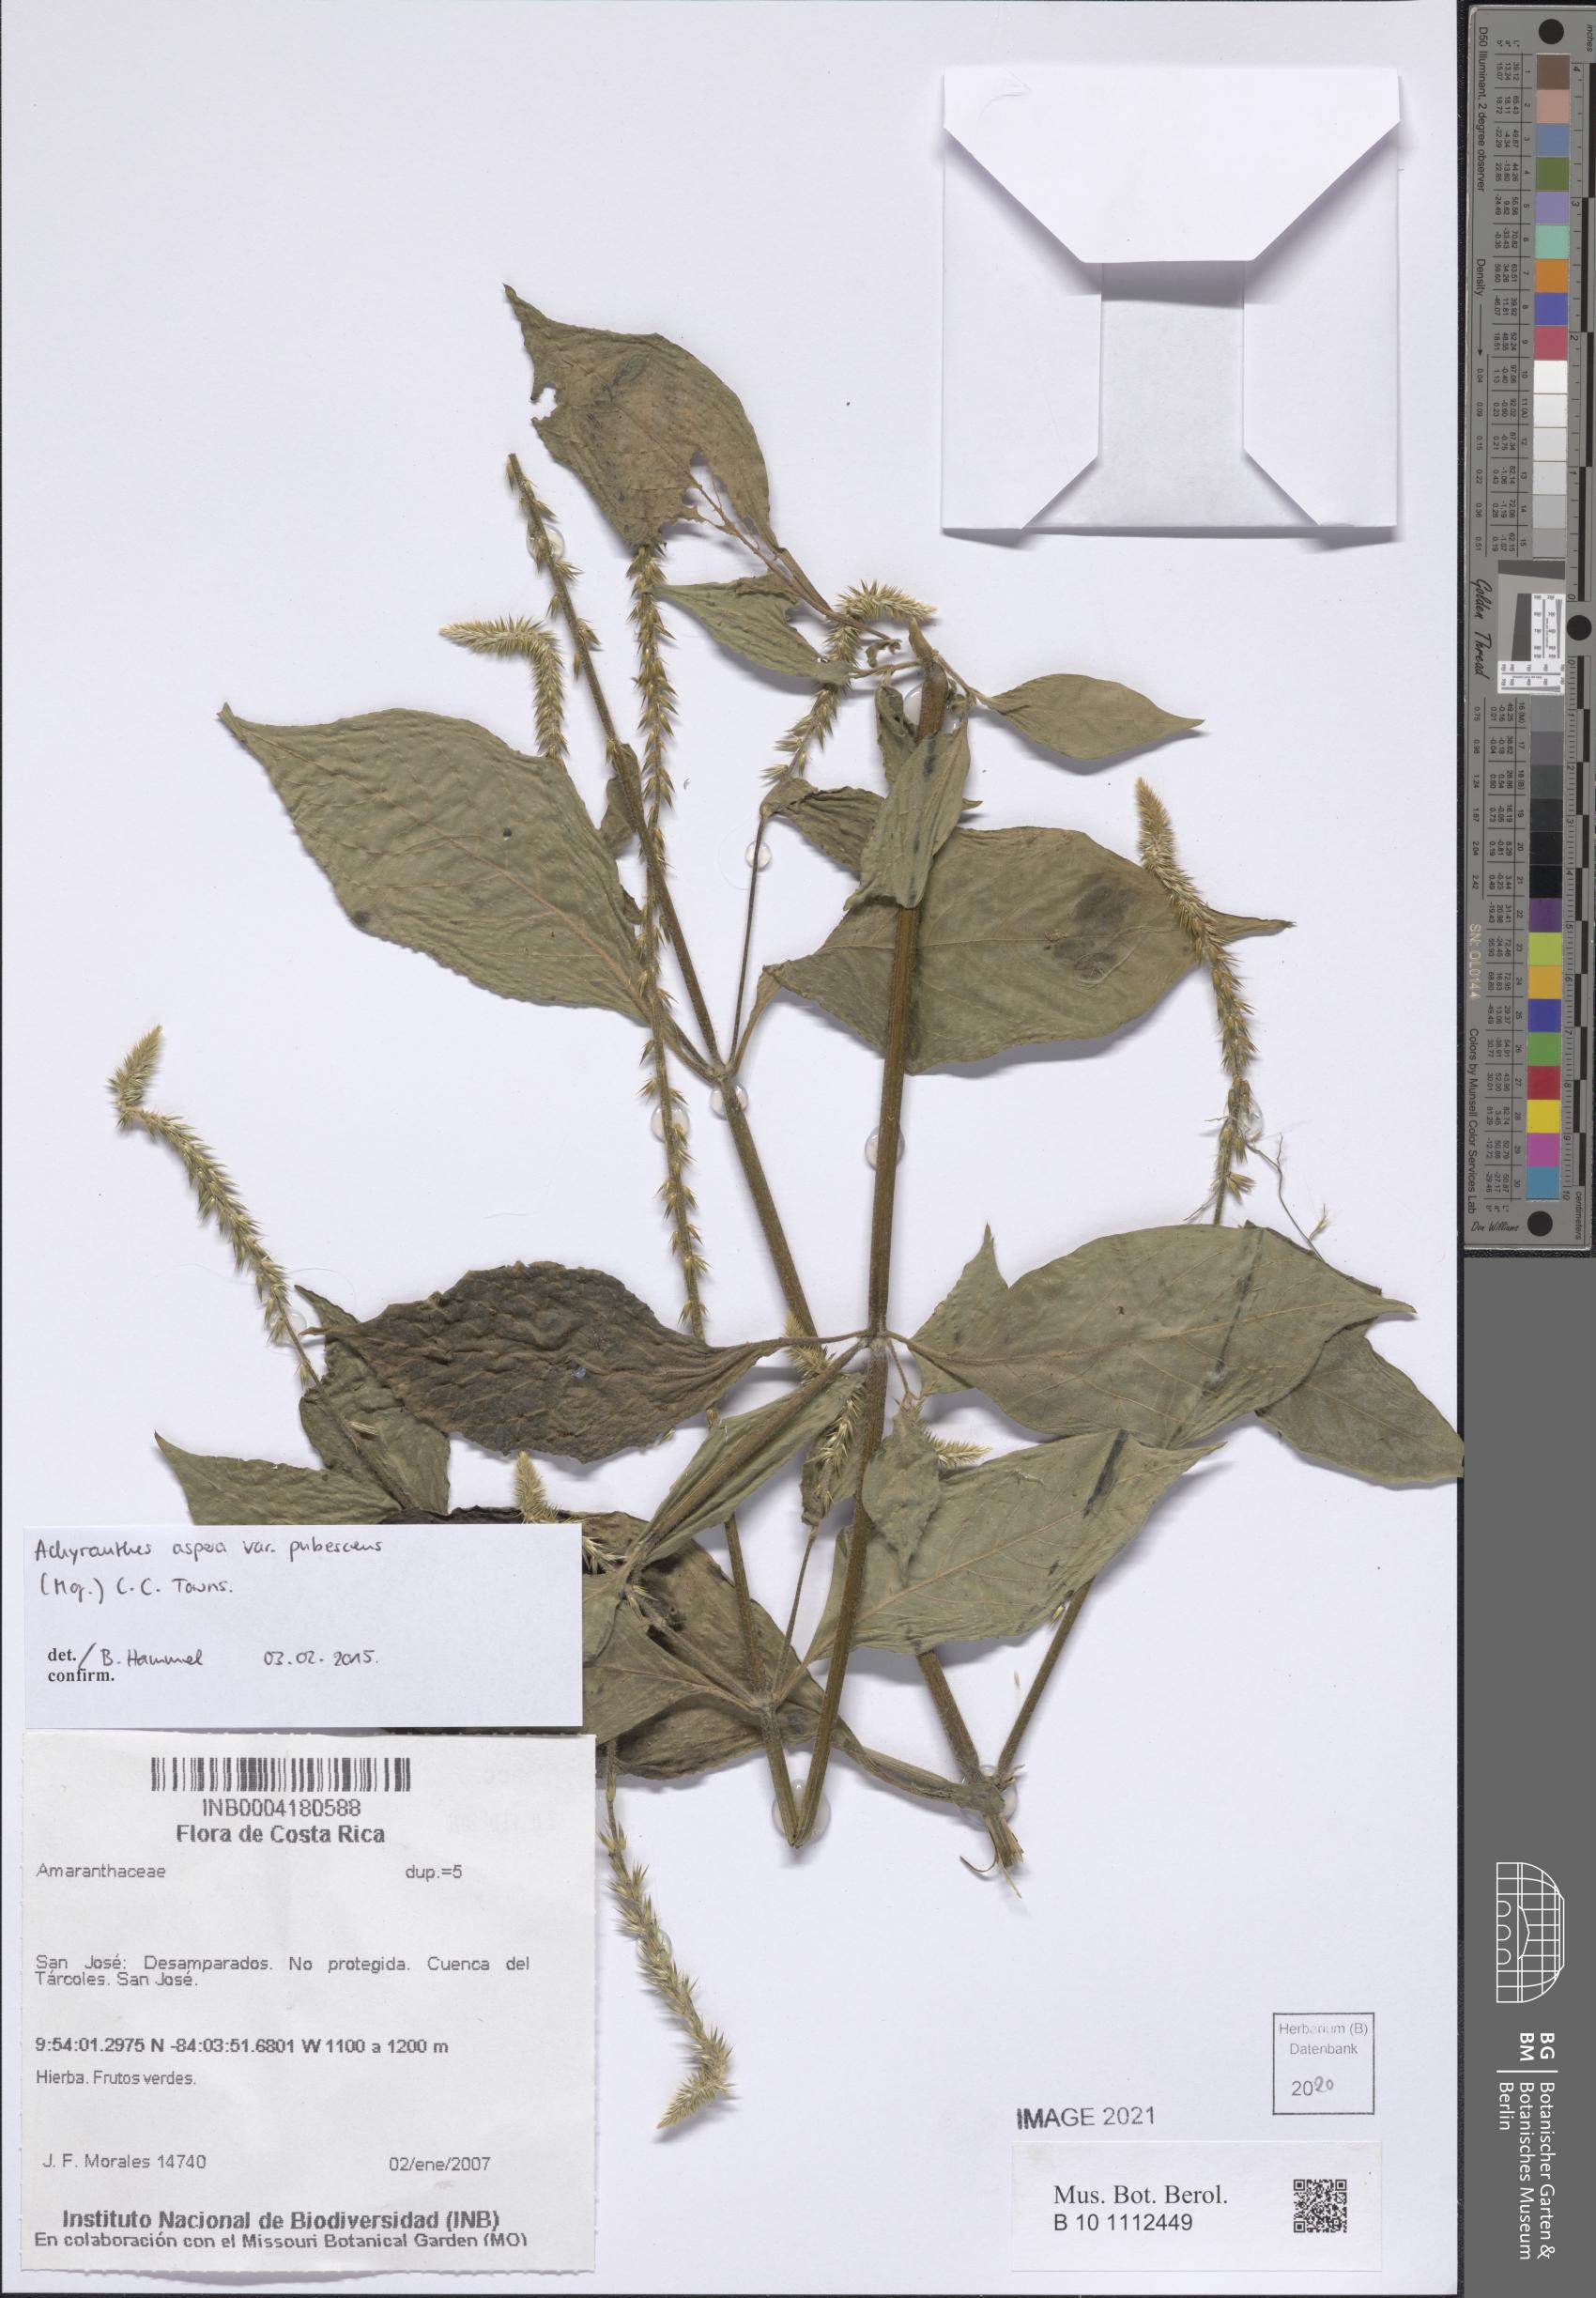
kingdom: Plantae
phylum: Tracheophyta
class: Magnoliopsida
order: Caryophyllales
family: Amaranthaceae
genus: Achyranthes
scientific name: Achyranthes aspera
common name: Devil's horsewhip
